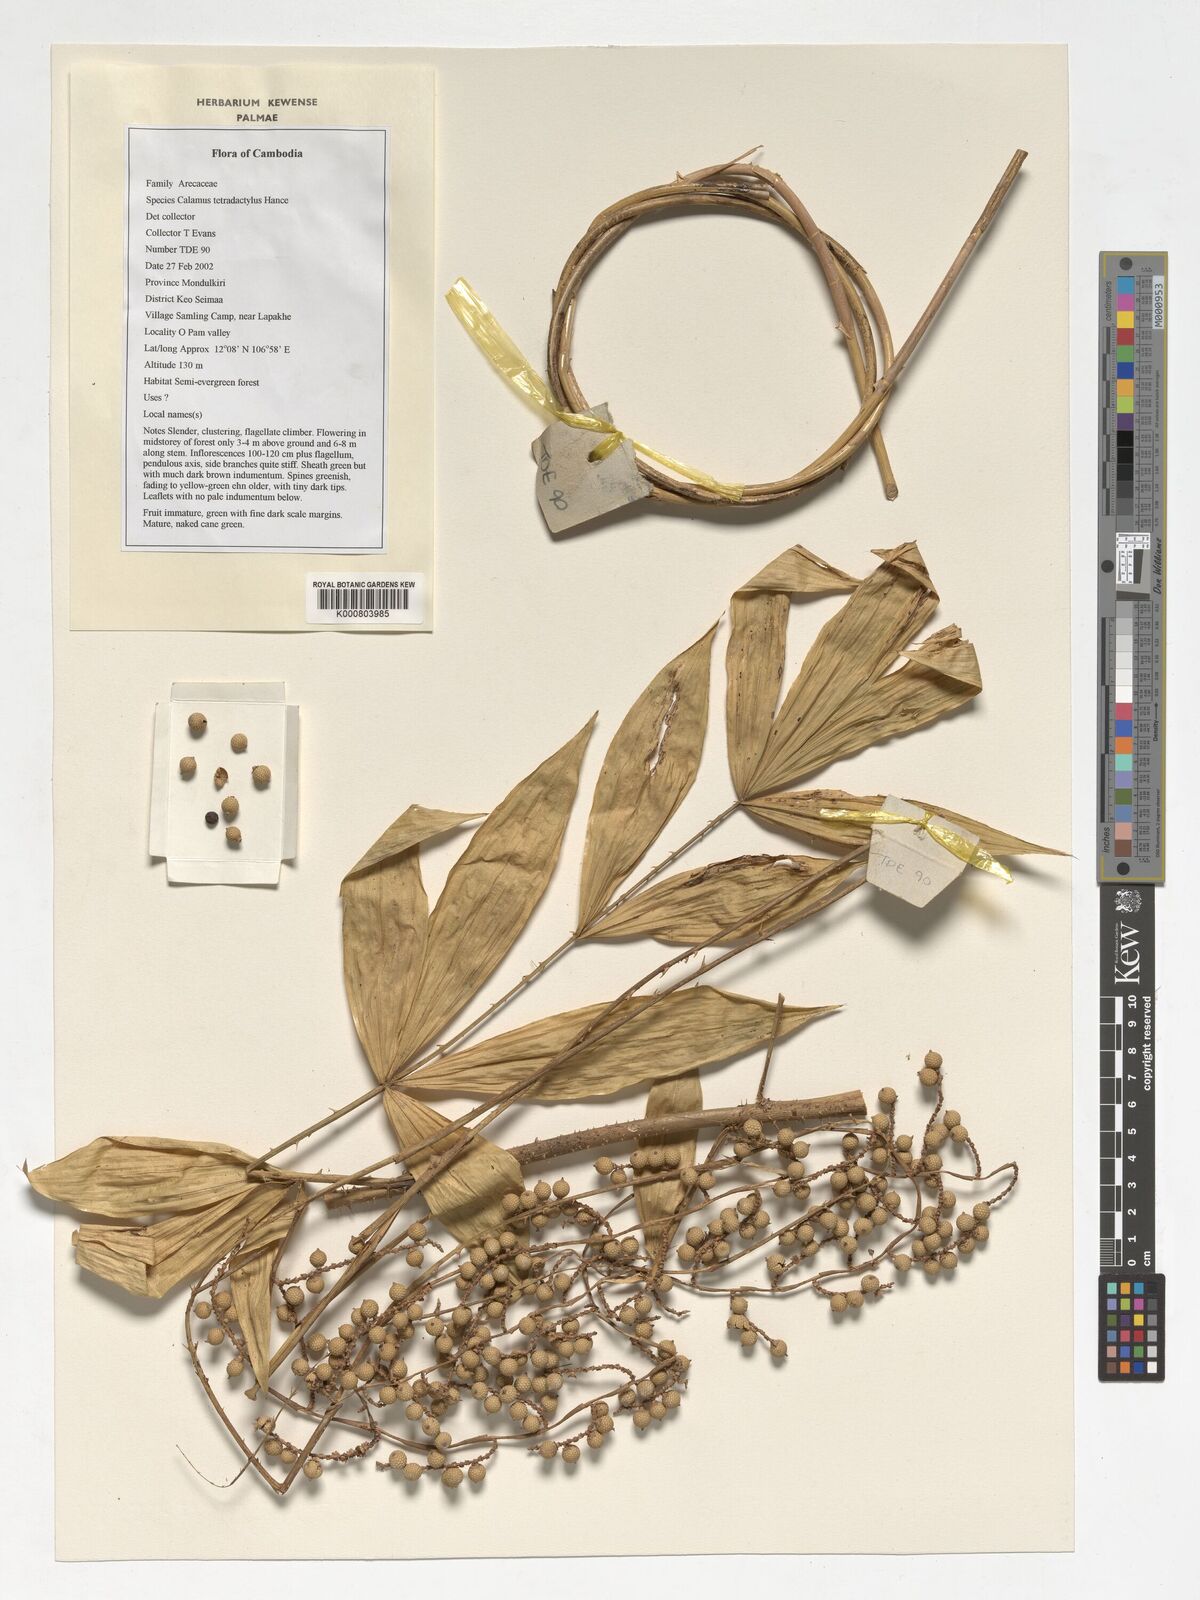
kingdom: Plantae
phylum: Tracheophyta
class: Liliopsida
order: Arecales
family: Arecaceae
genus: Calamus
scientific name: Calamus tetradactylus
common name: White rattan
